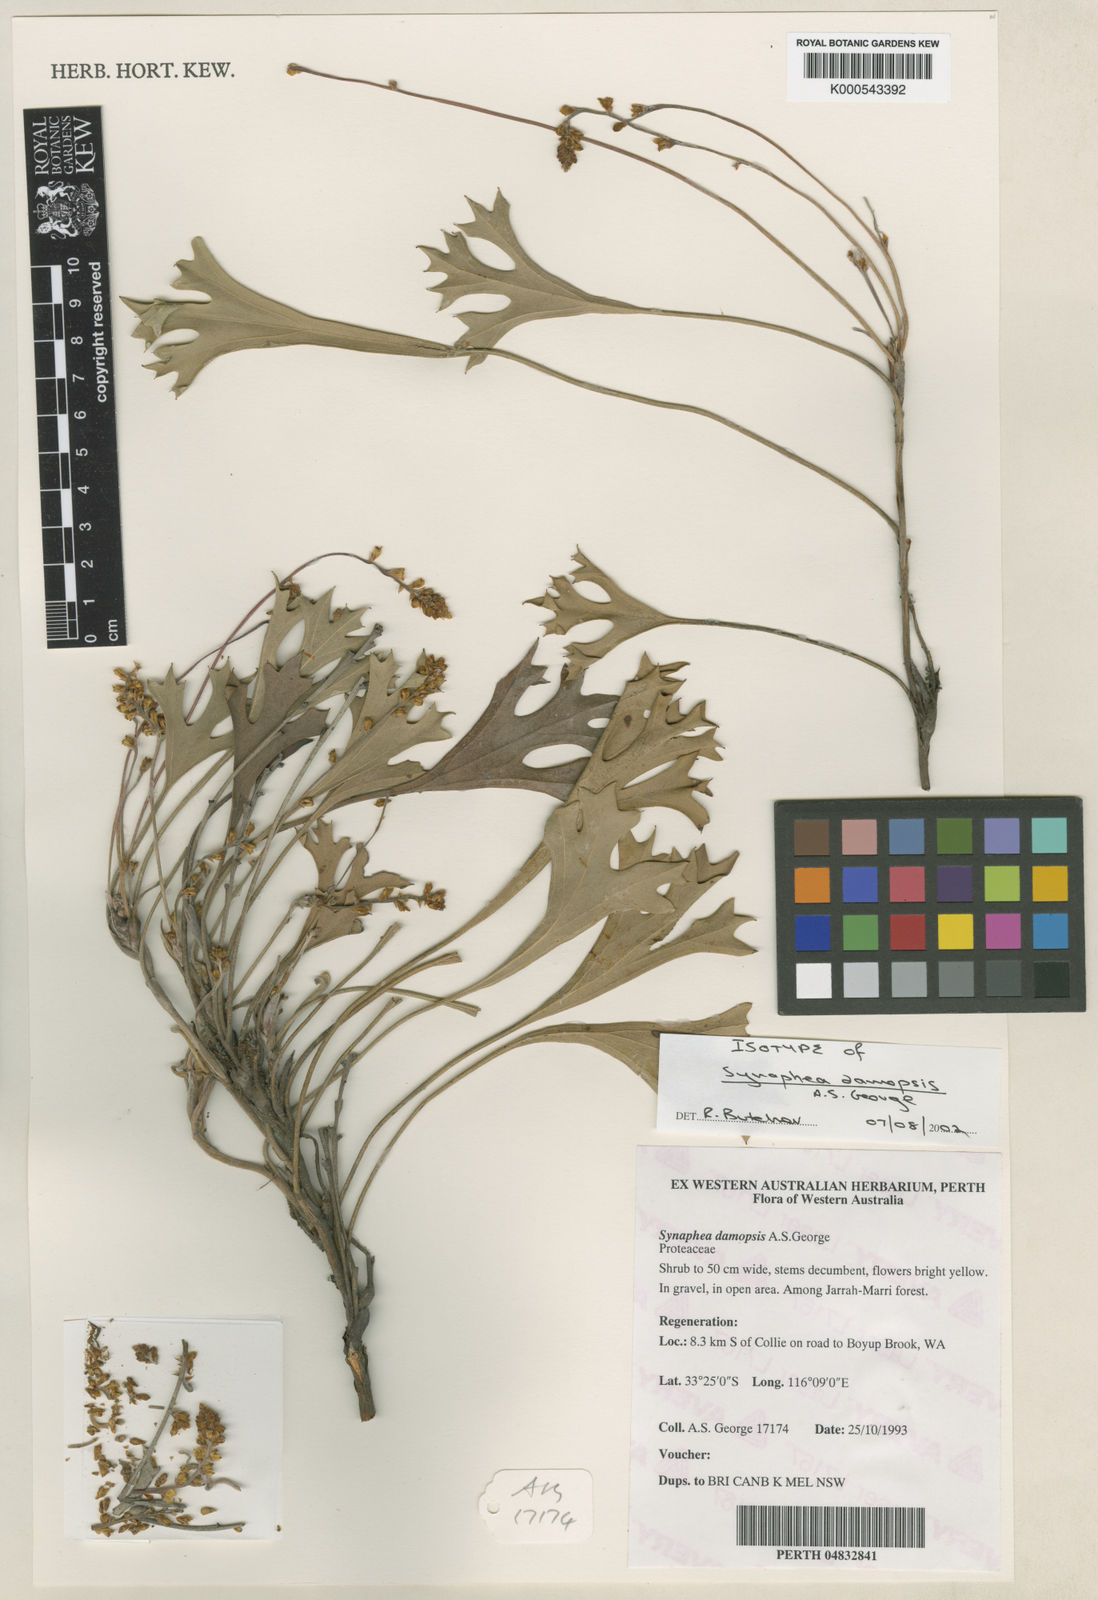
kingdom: Plantae
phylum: Tracheophyta
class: Magnoliopsida
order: Proteales
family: Proteaceae
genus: Synaphea
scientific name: Synaphea damopsis
